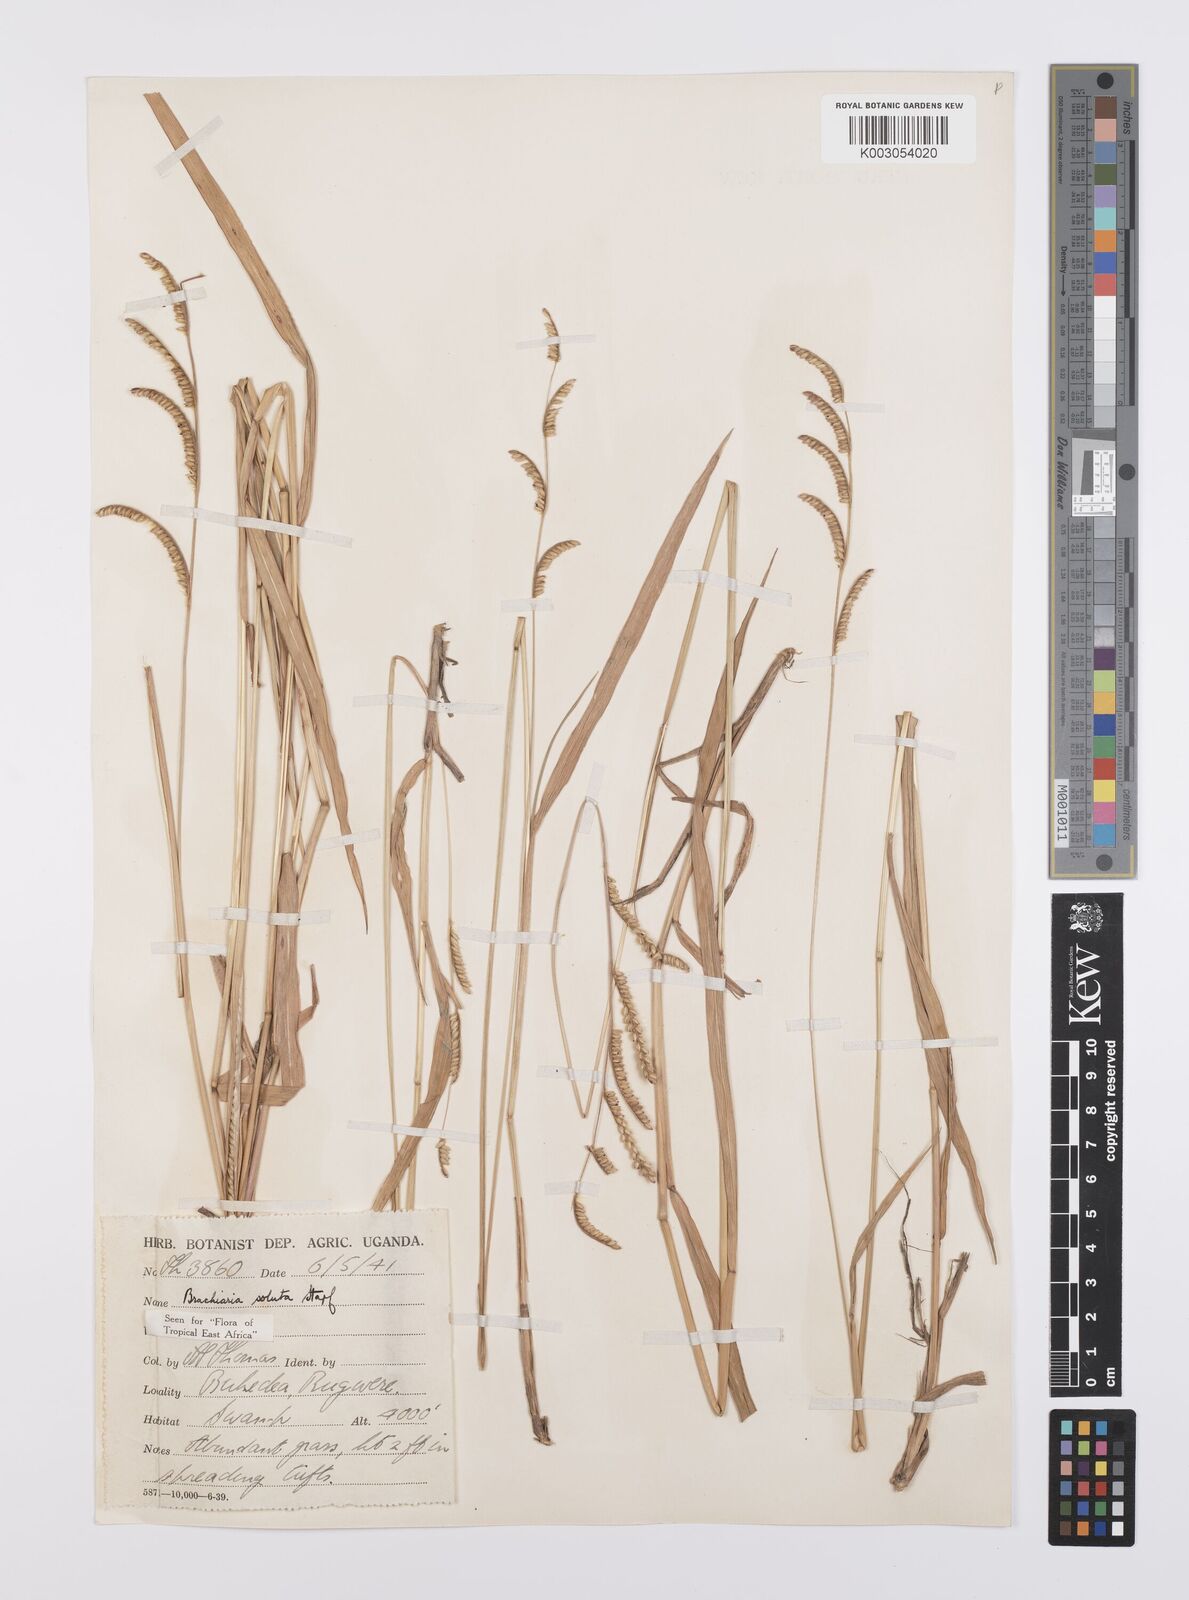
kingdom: Plantae
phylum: Tracheophyta
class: Liliopsida
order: Poales
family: Poaceae
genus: Urochloa
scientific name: Urochloa jubata
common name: Buffalograss
